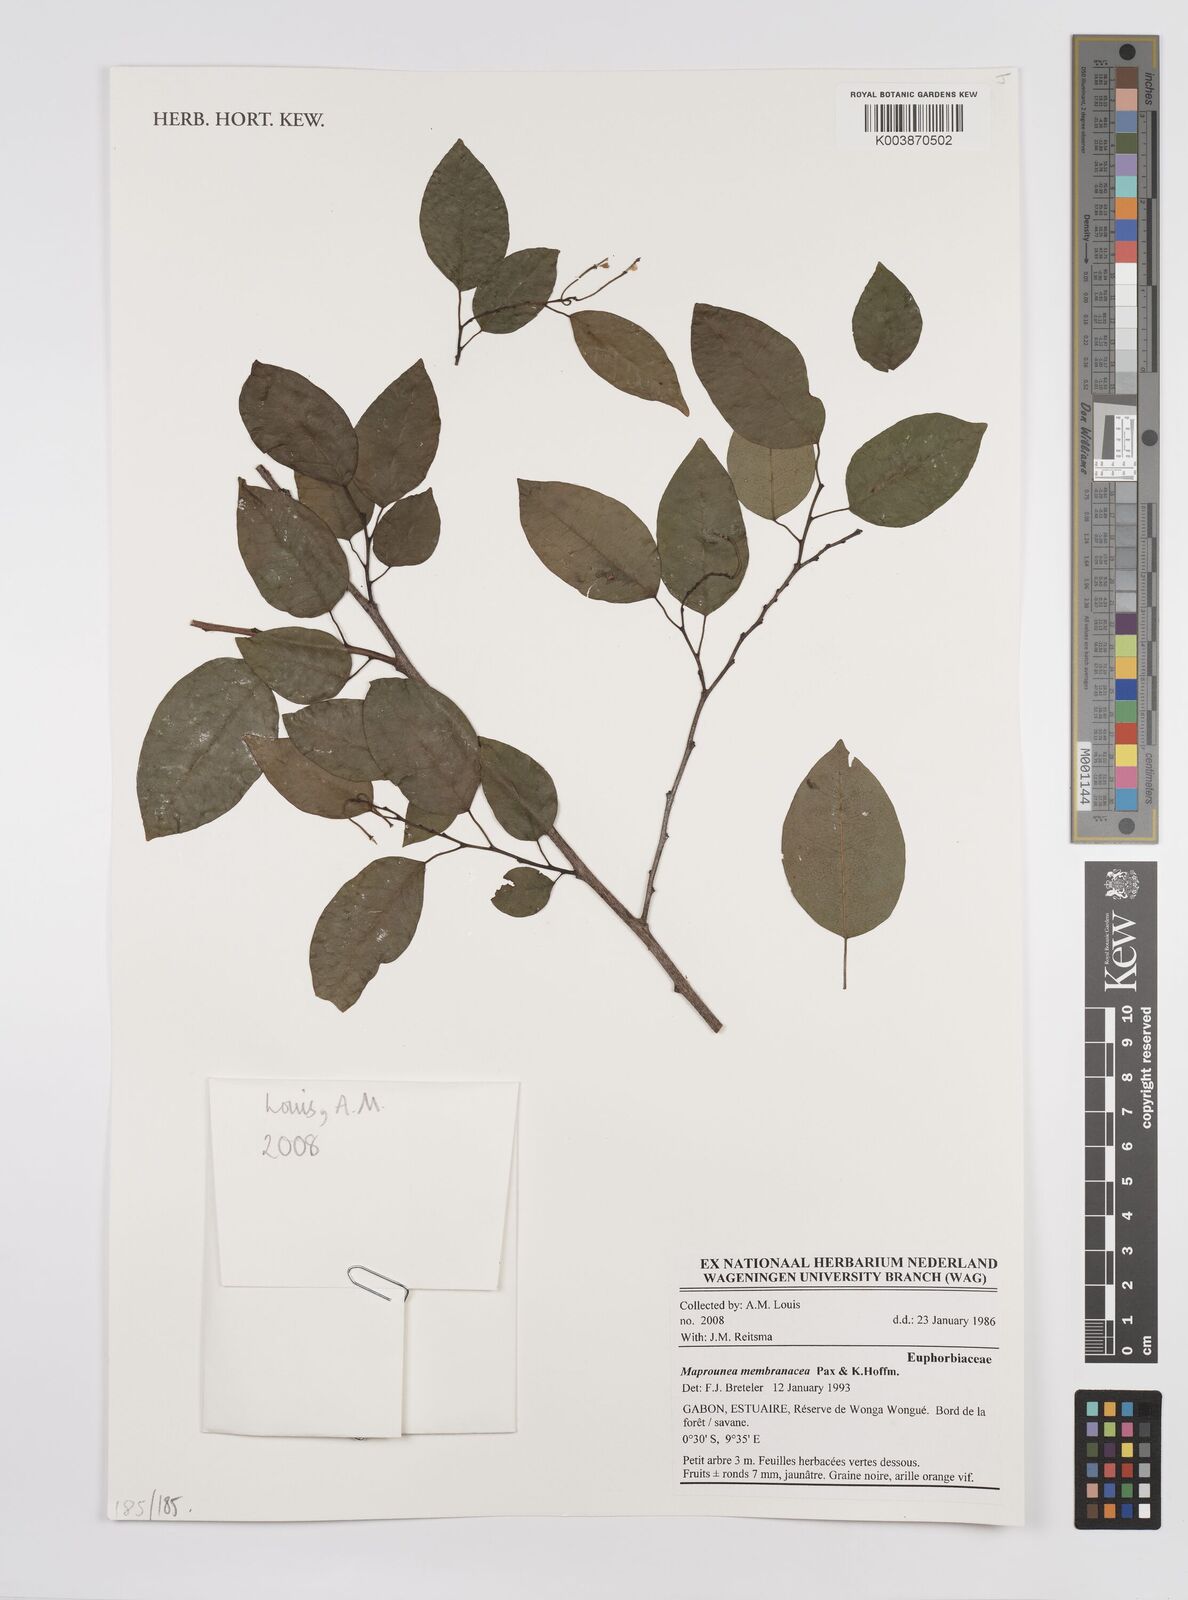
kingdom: Plantae
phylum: Tracheophyta
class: Magnoliopsida
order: Malpighiales
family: Euphorbiaceae
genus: Maprounea
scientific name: Maprounea membranacea
